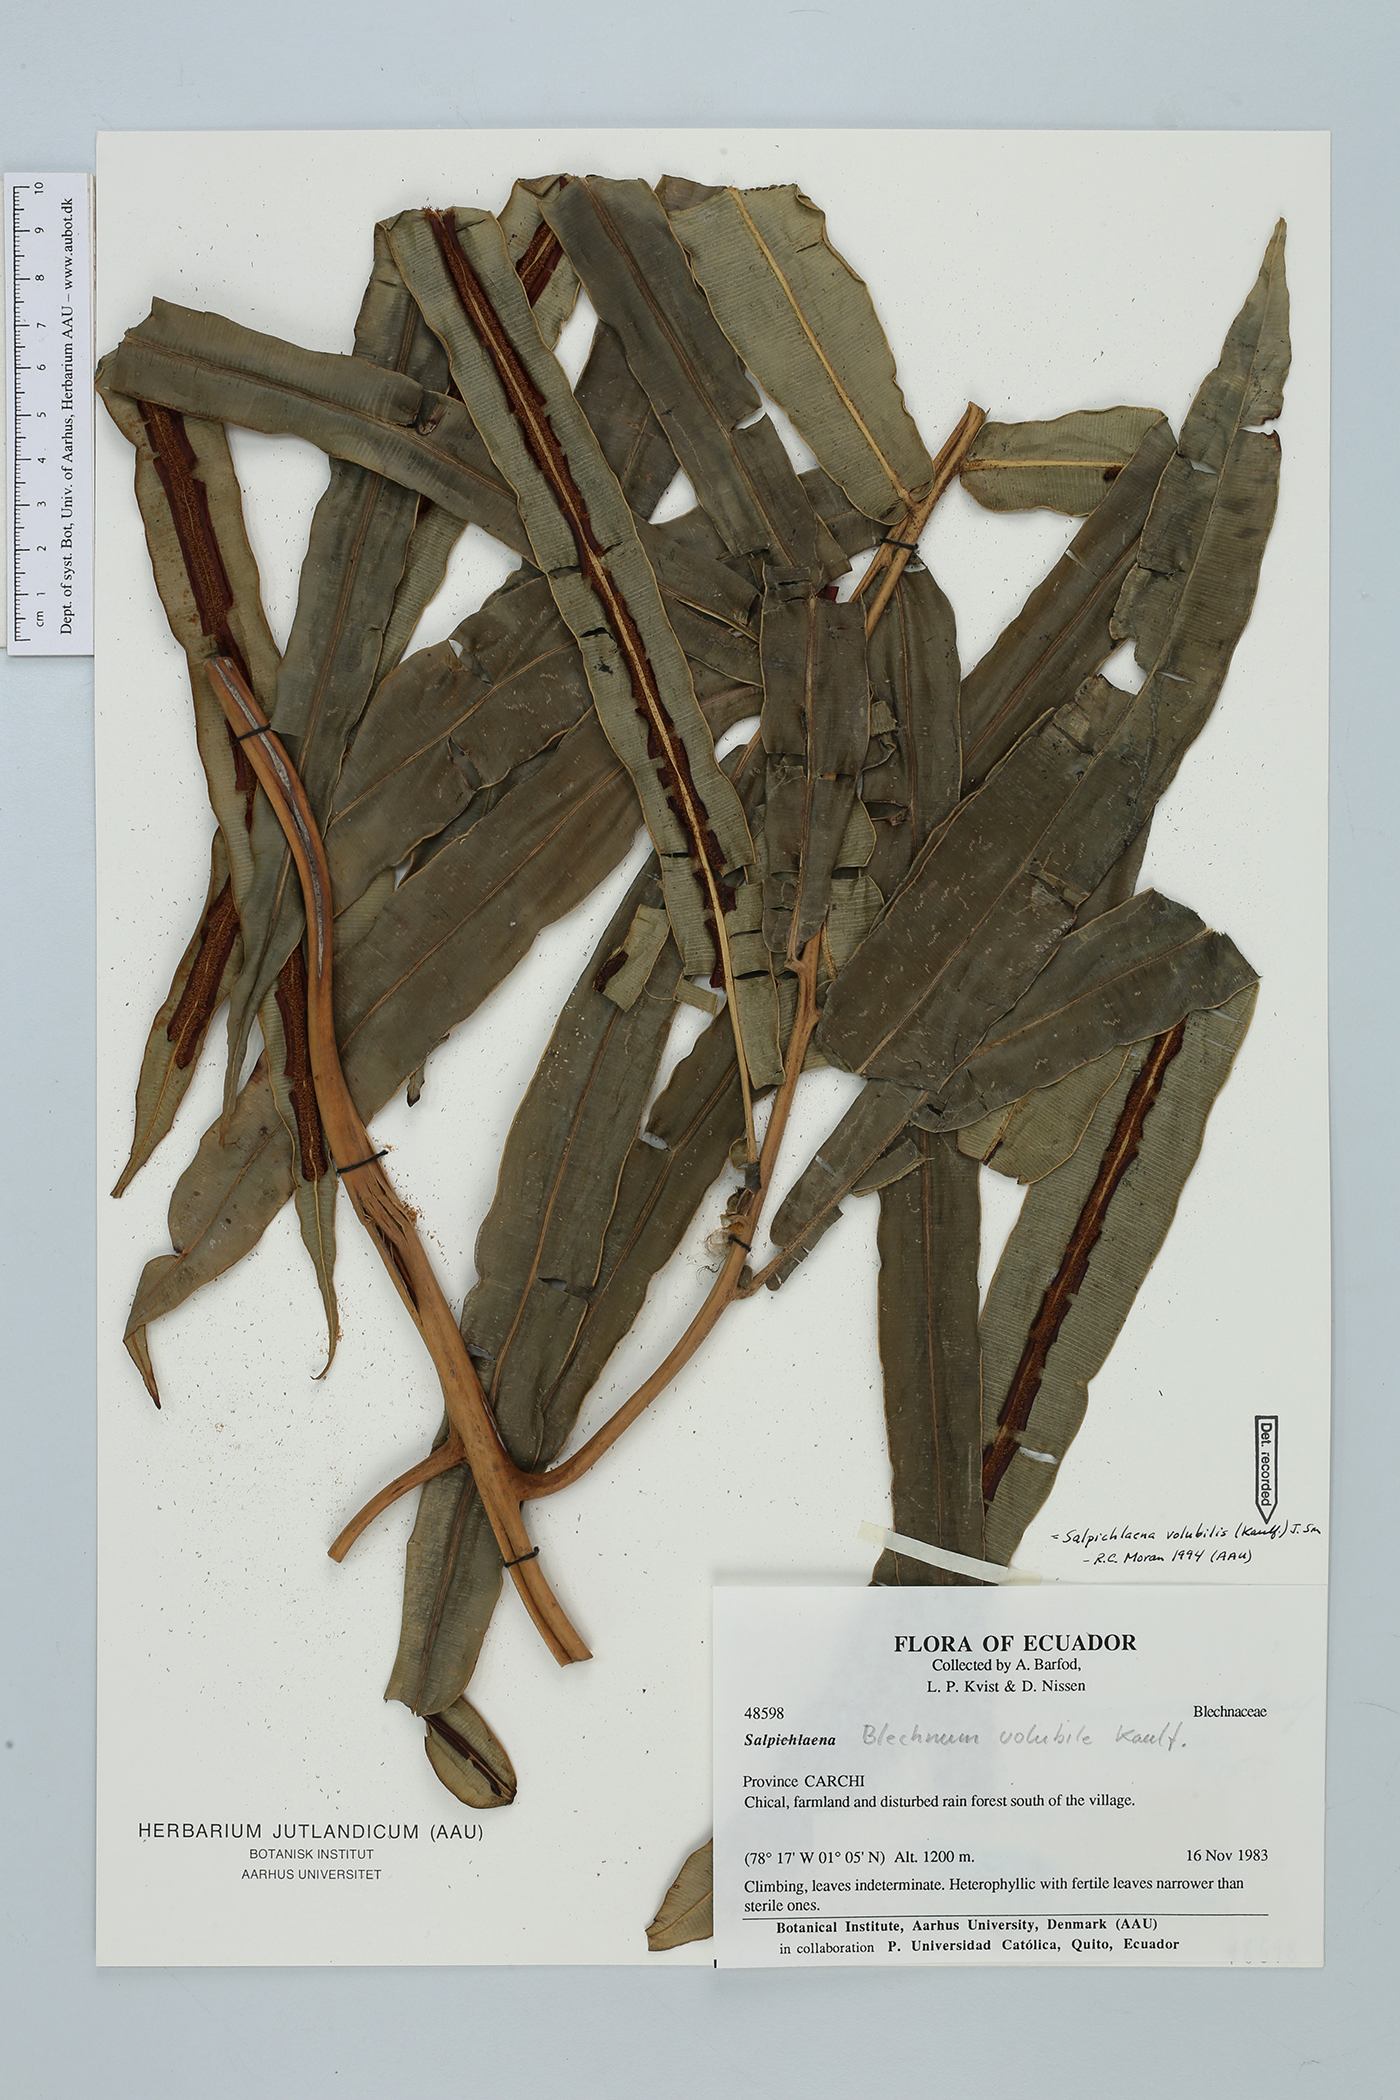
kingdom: Plantae
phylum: Tracheophyta
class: Polypodiopsida
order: Polypodiales
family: Blechnaceae
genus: Salpichlaena
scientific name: Salpichlaena volubilis
